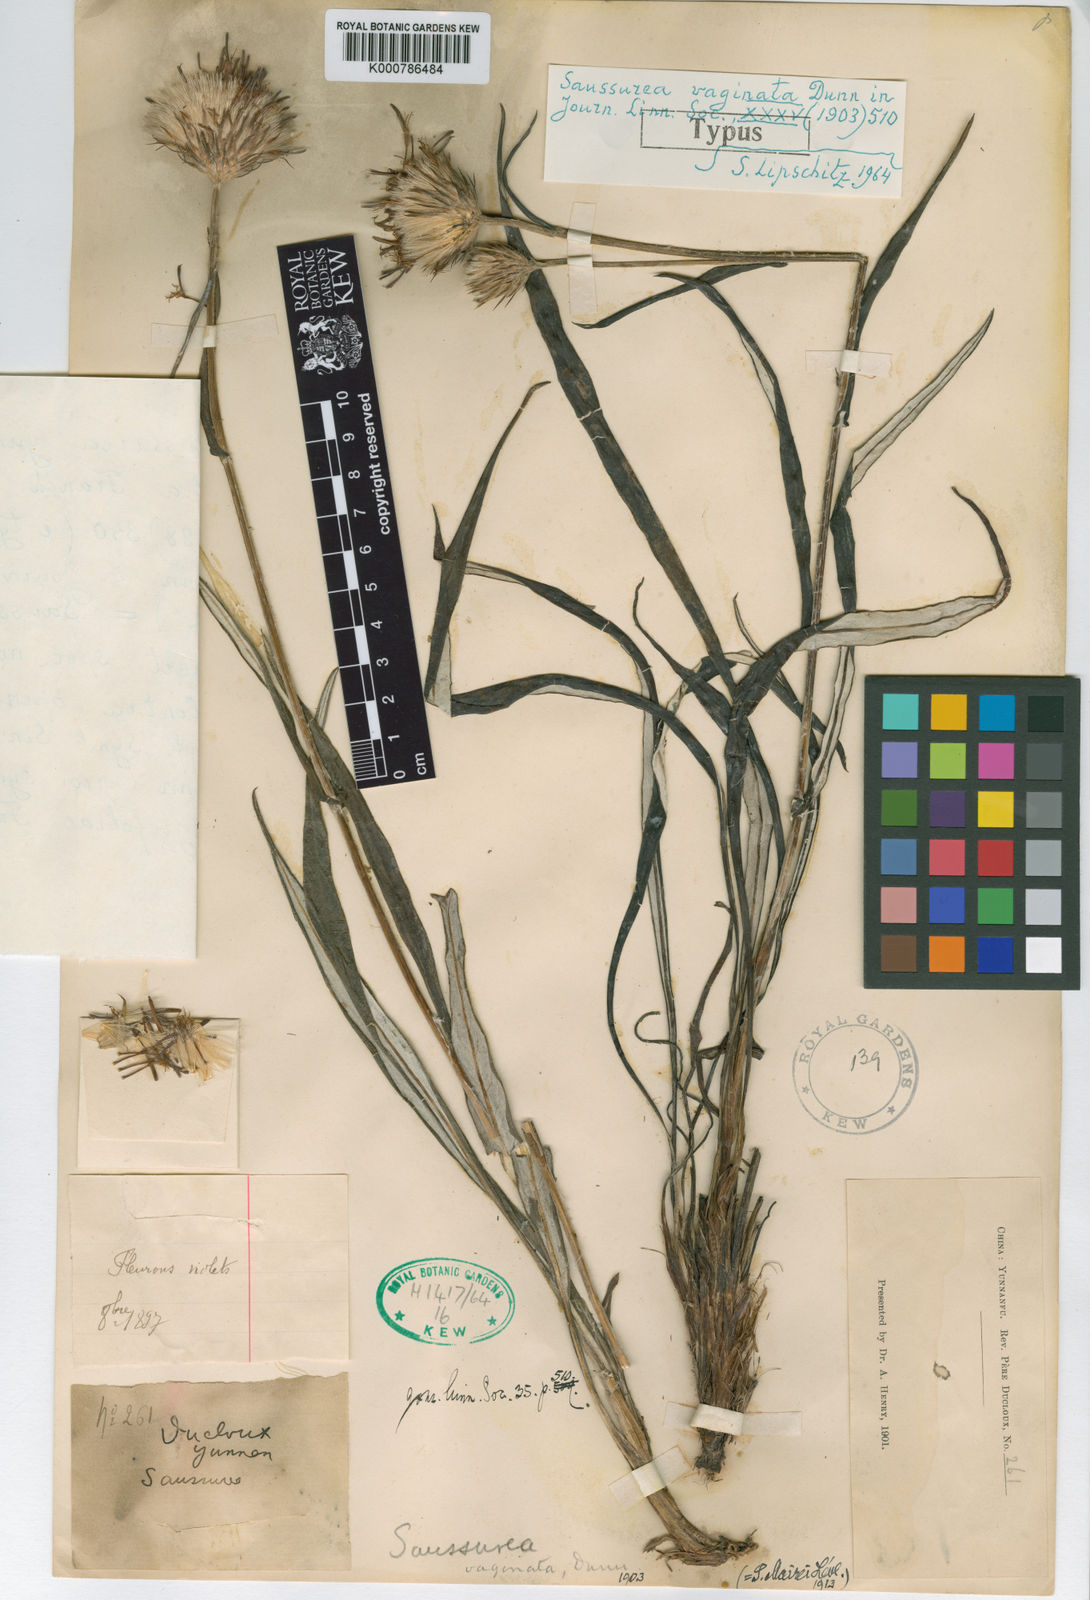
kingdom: Plantae
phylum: Tracheophyta
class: Magnoliopsida
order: Asterales
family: Asteraceae
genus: Saussurea
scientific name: Saussurea yunnanensis
